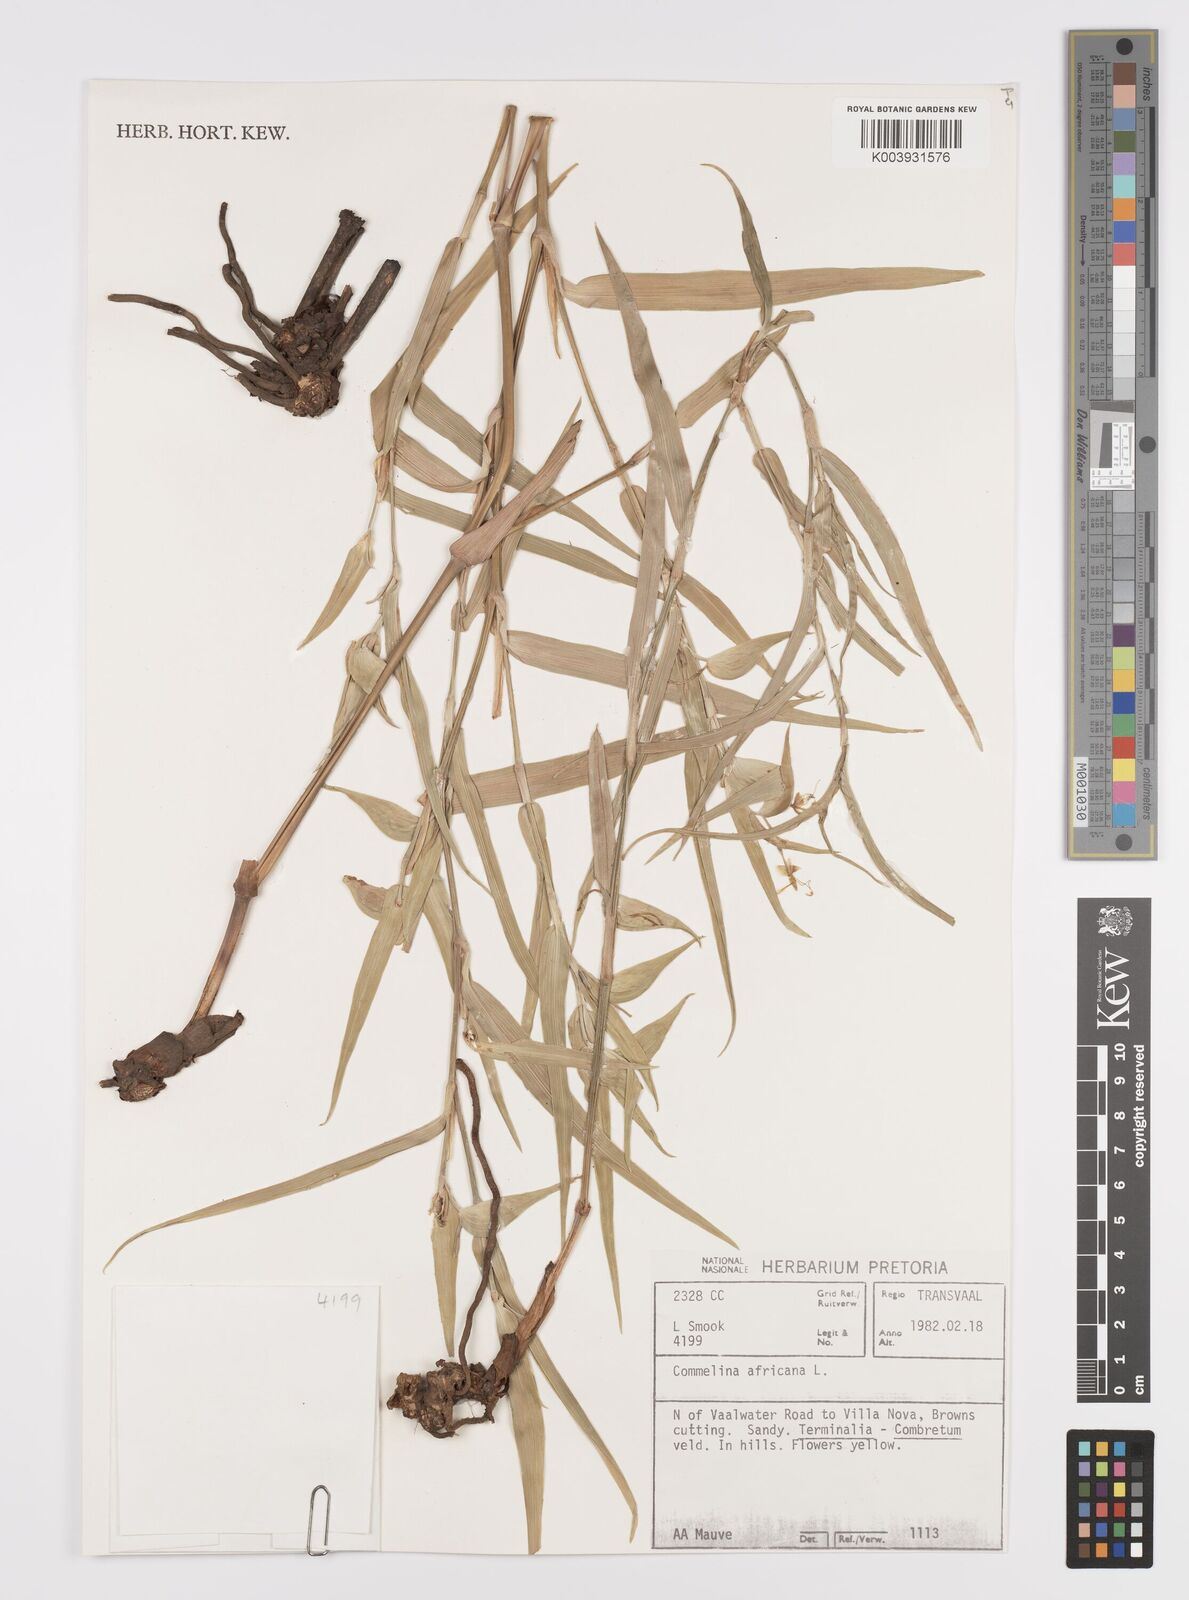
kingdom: Plantae
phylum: Tracheophyta
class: Liliopsida
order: Commelinales
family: Commelinaceae
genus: Commelina
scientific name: Commelina africana
